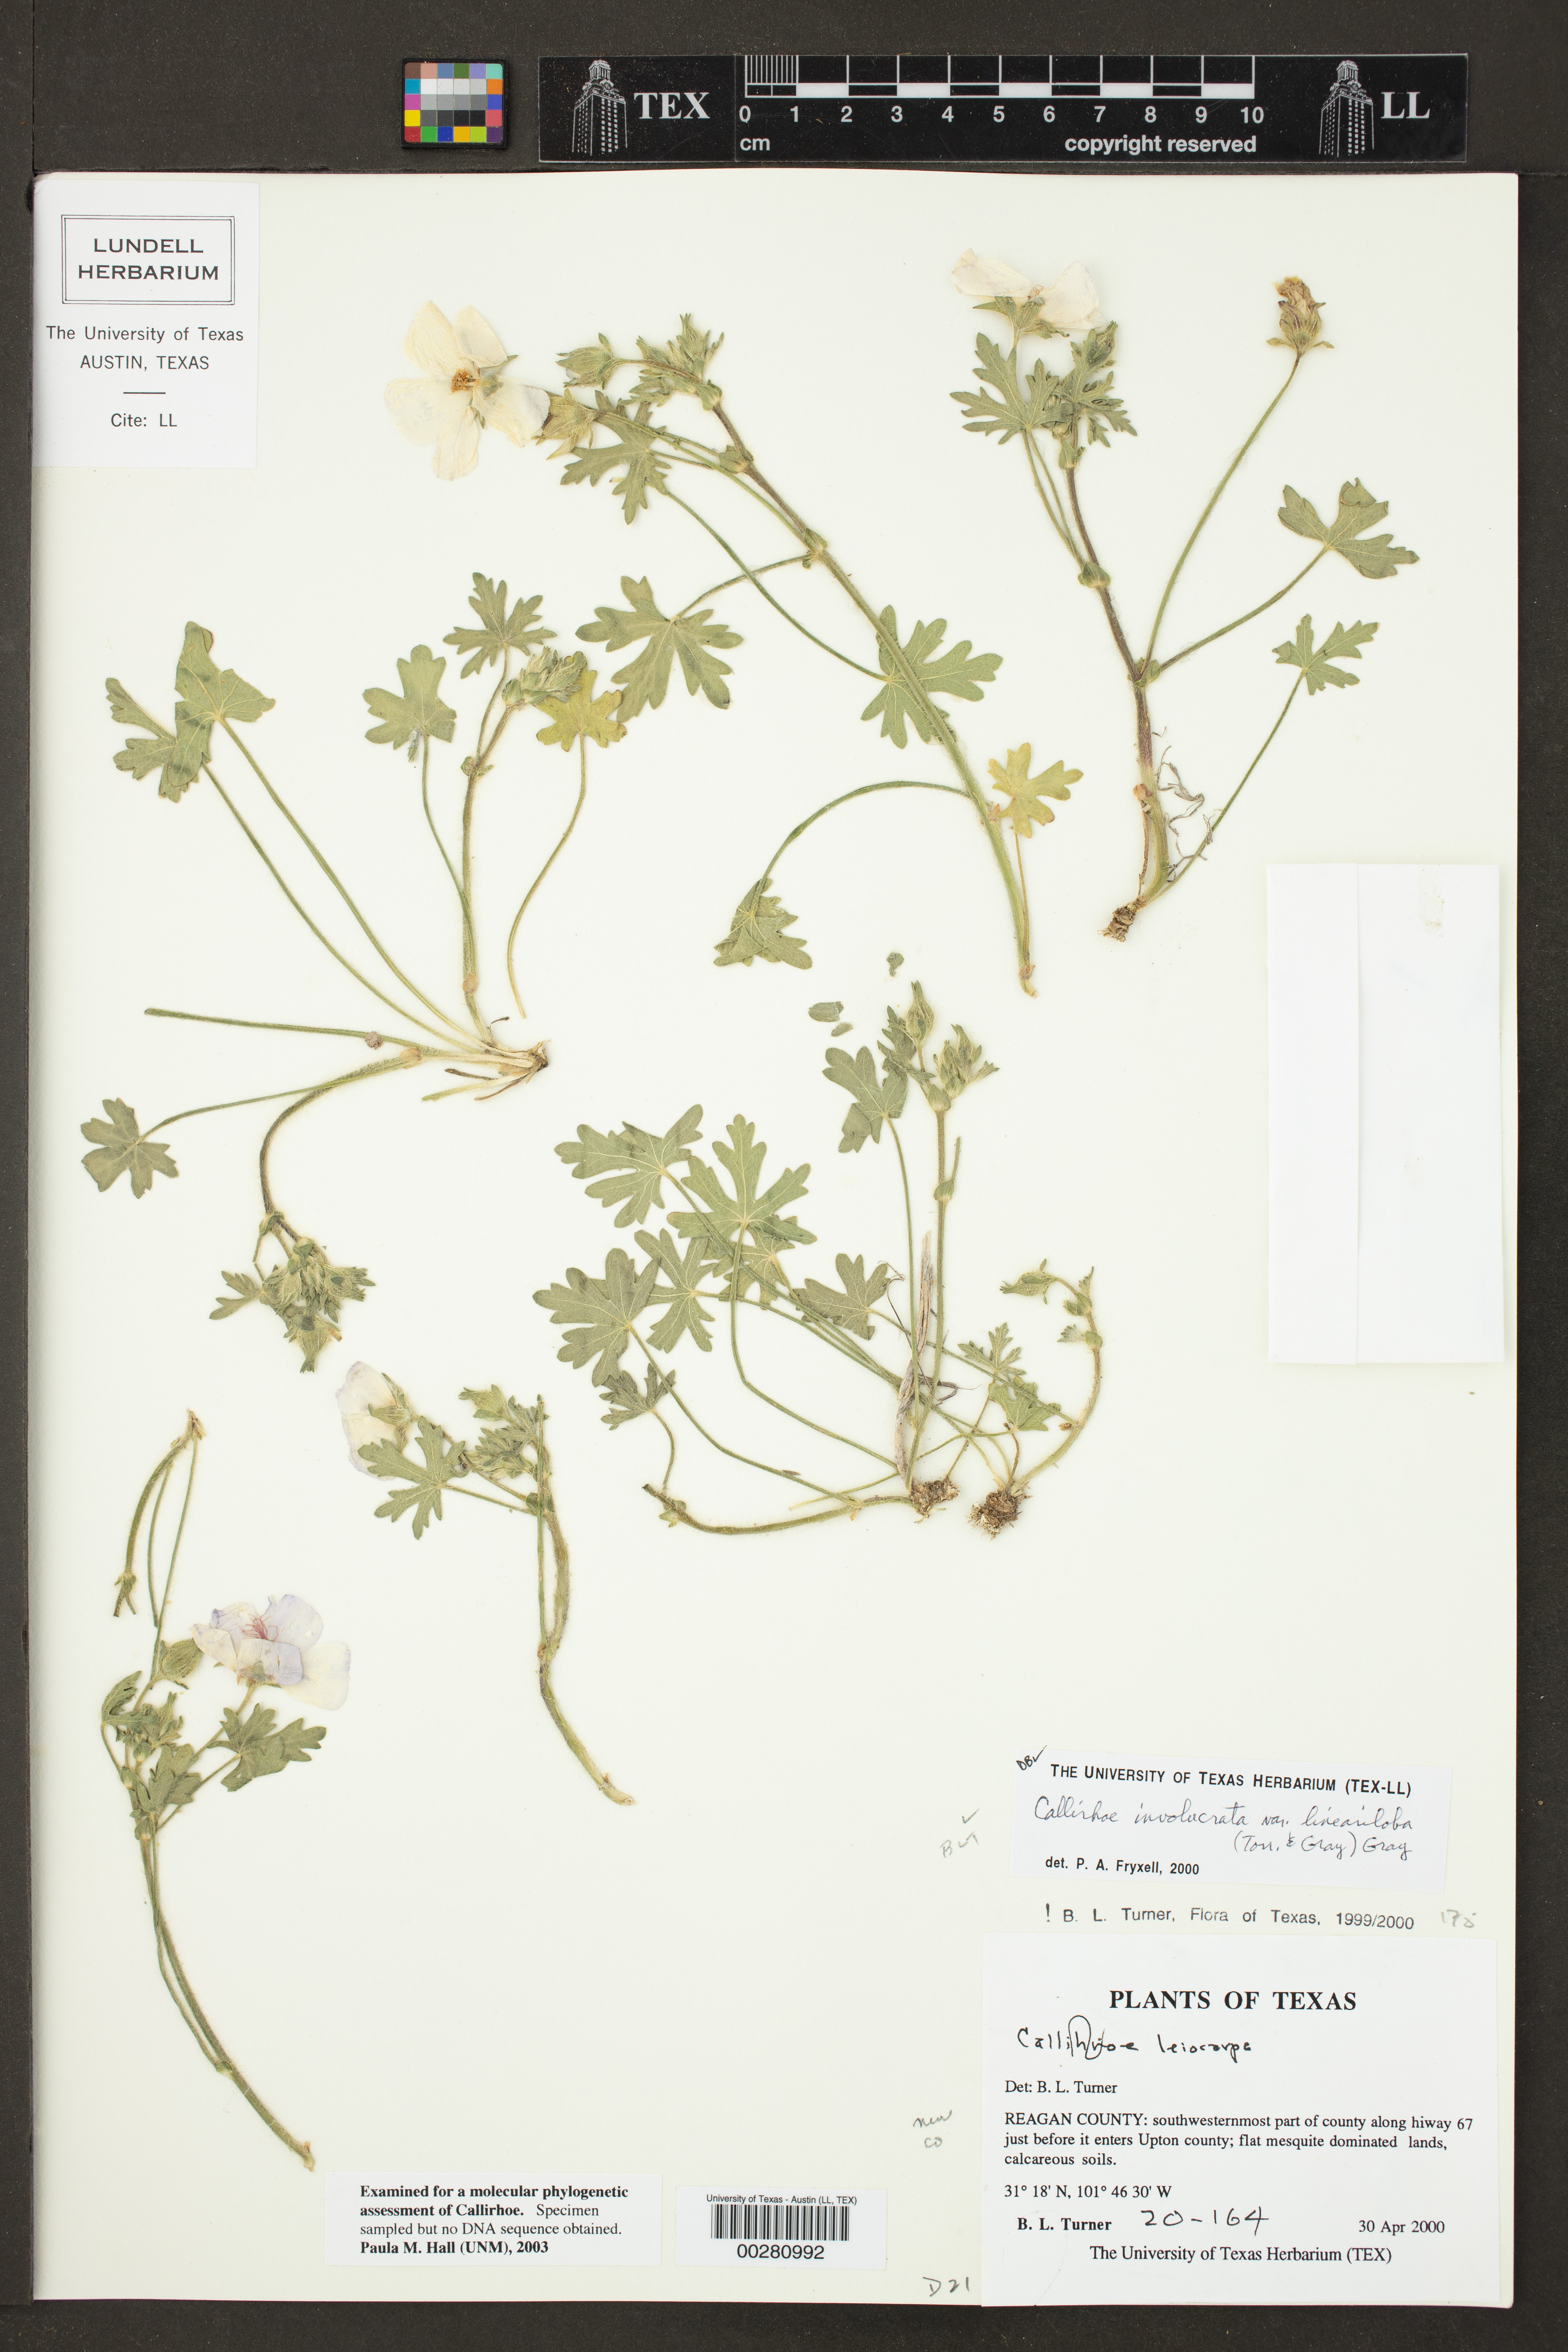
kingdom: Plantae
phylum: Tracheophyta
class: Magnoliopsida
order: Malvales
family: Malvaceae
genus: Callirhoe
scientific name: Callirhoe involucrata
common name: Purple poppy-mallow
